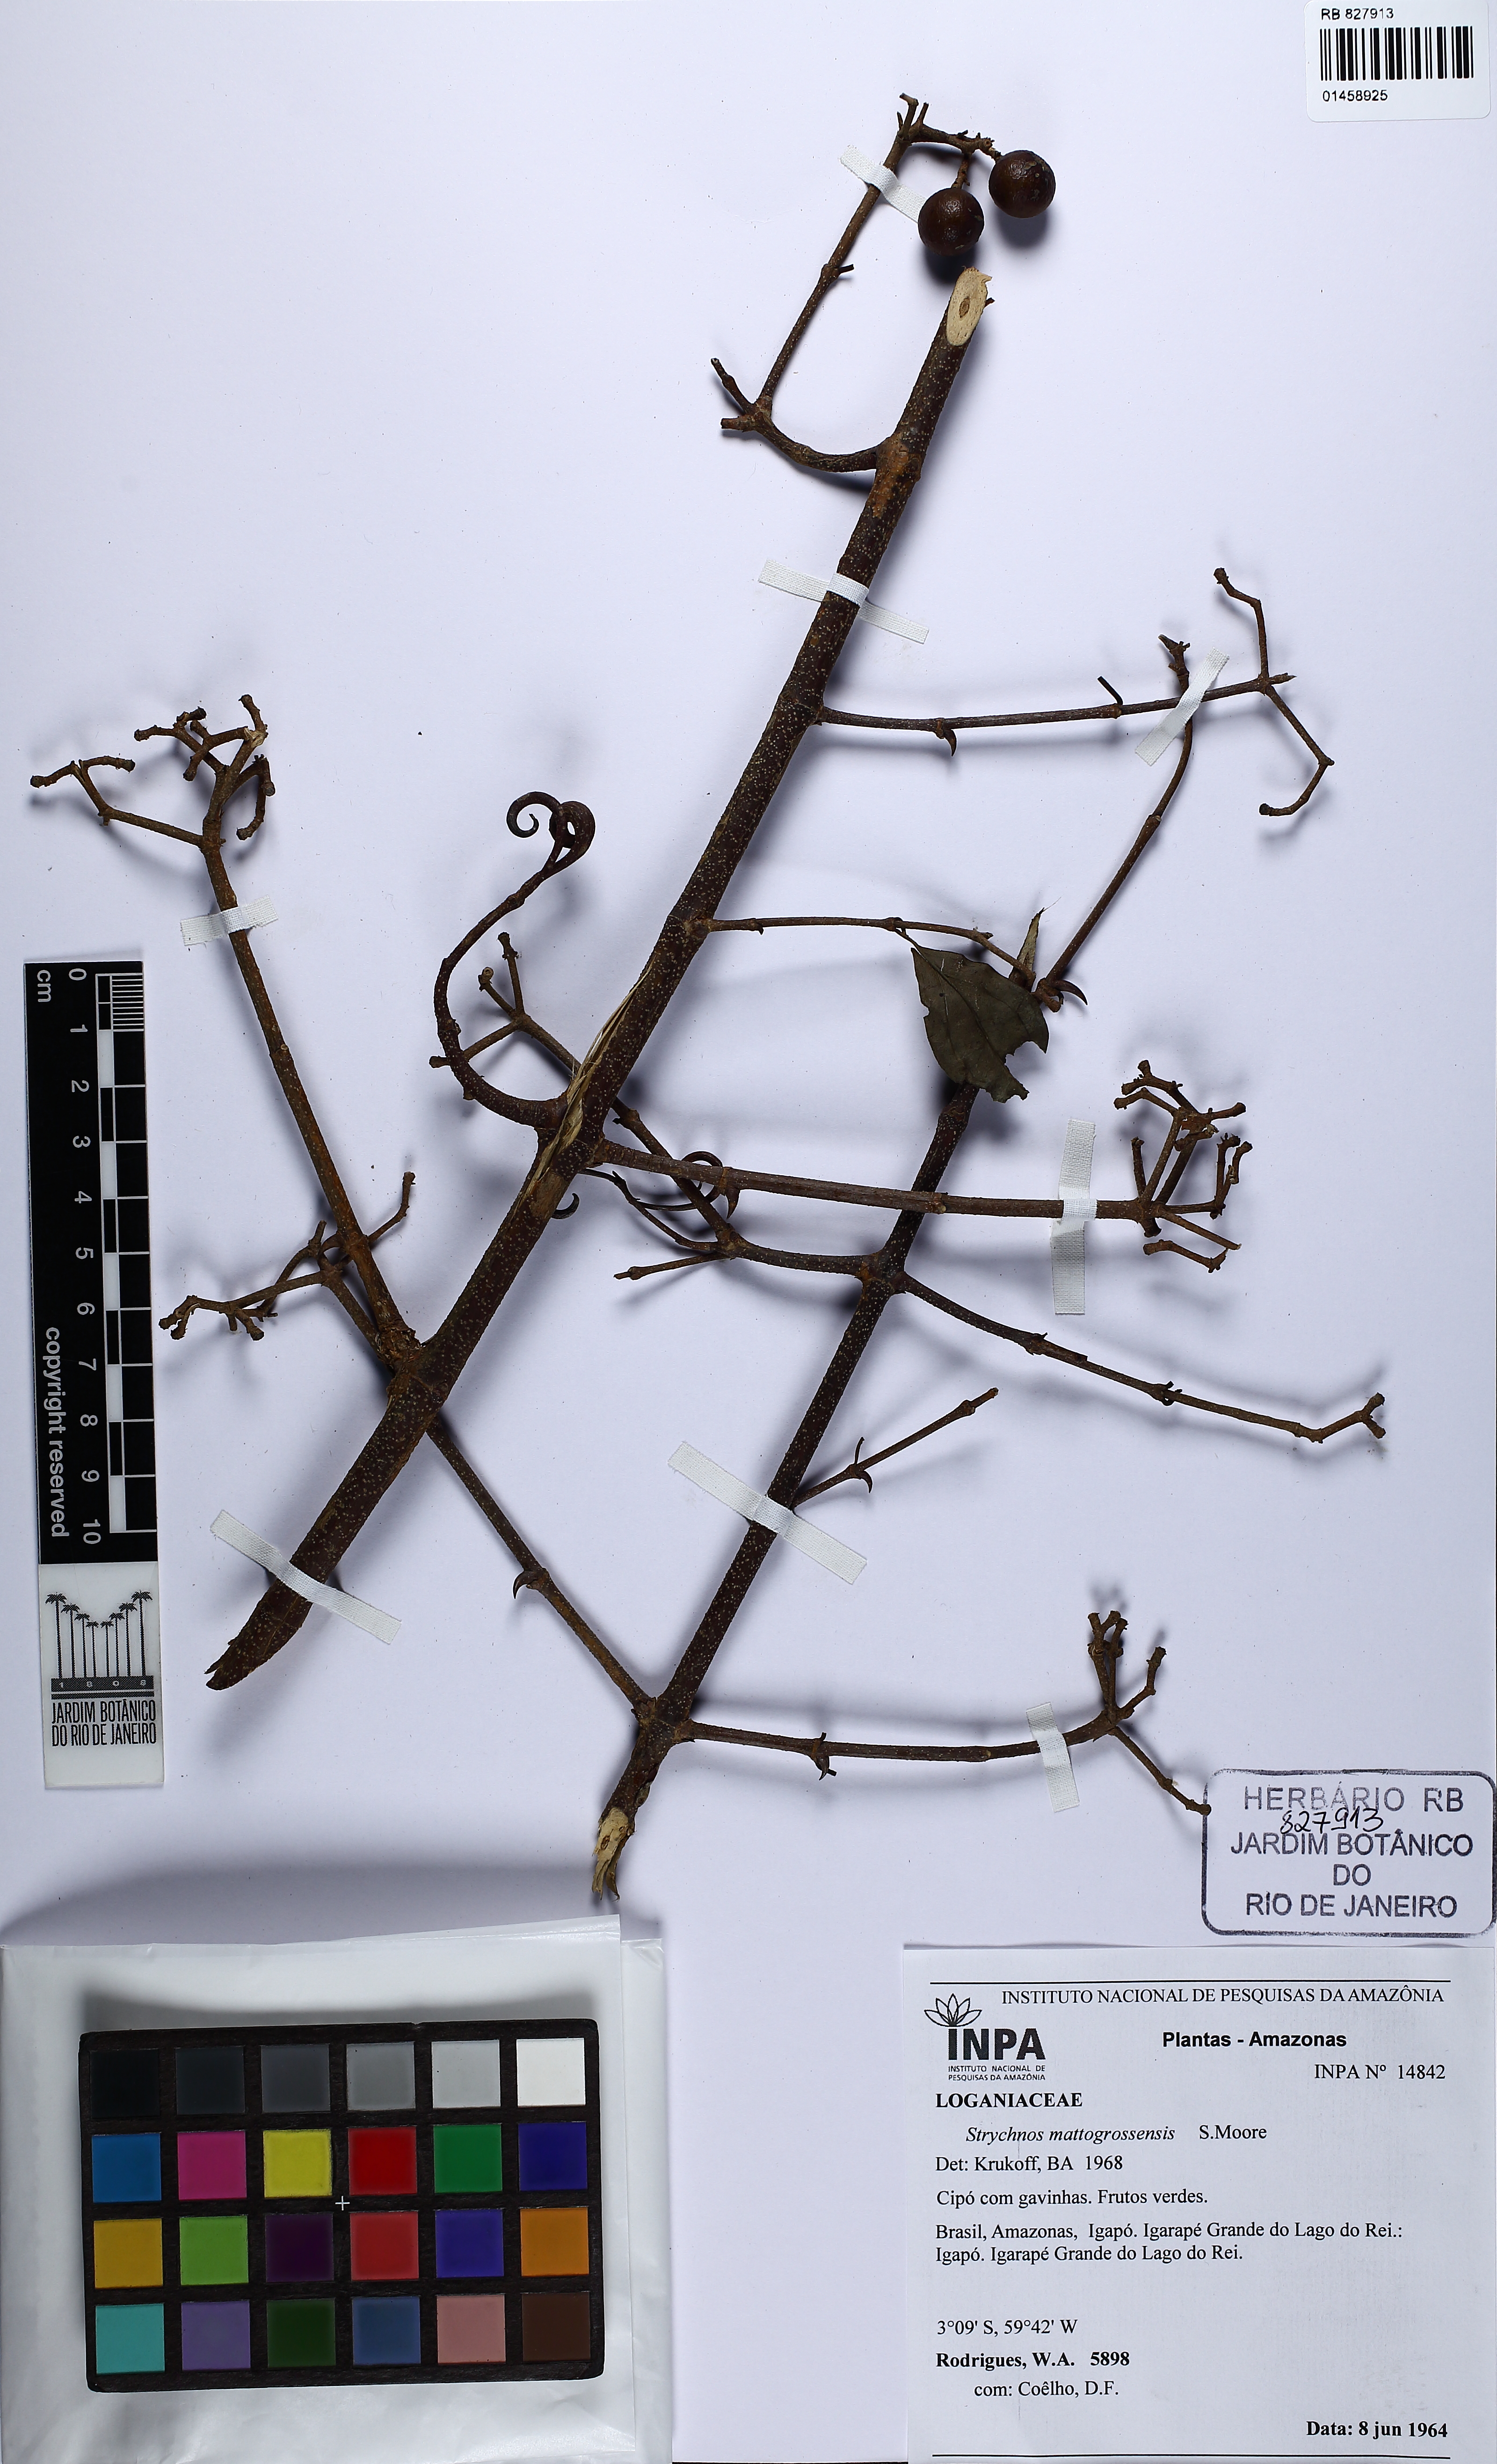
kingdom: Plantae
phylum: Tracheophyta
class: Magnoliopsida
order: Gentianales
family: Loganiaceae
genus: Strychnos
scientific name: Strychnos mattogrossensis
